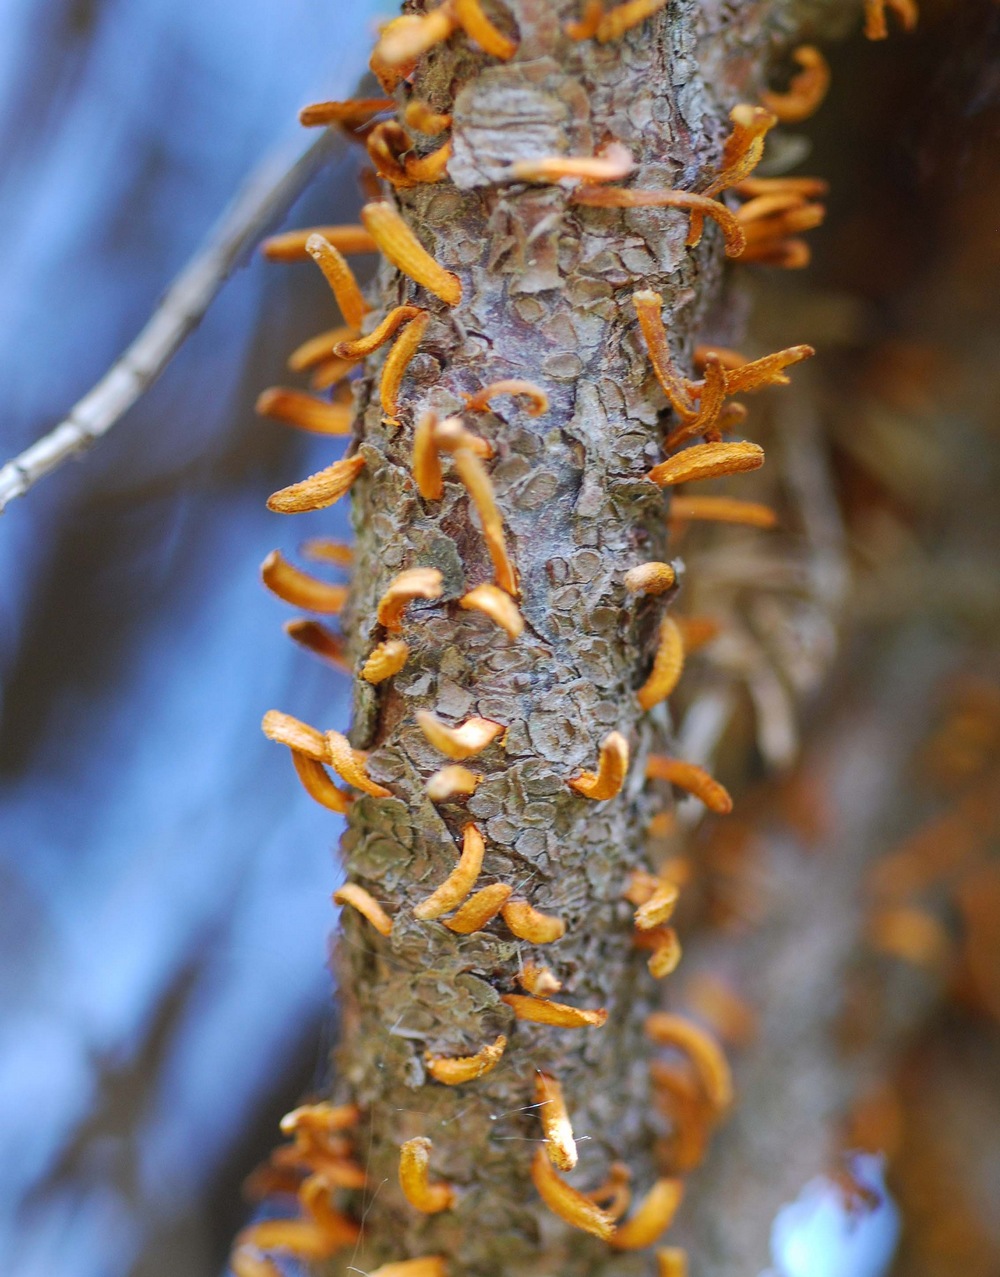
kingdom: Fungi
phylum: Basidiomycota
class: Pucciniomycetes
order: Pucciniales
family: Gymnosporangiaceae
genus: Gymnosporangium
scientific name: Gymnosporangium clavariiforme
